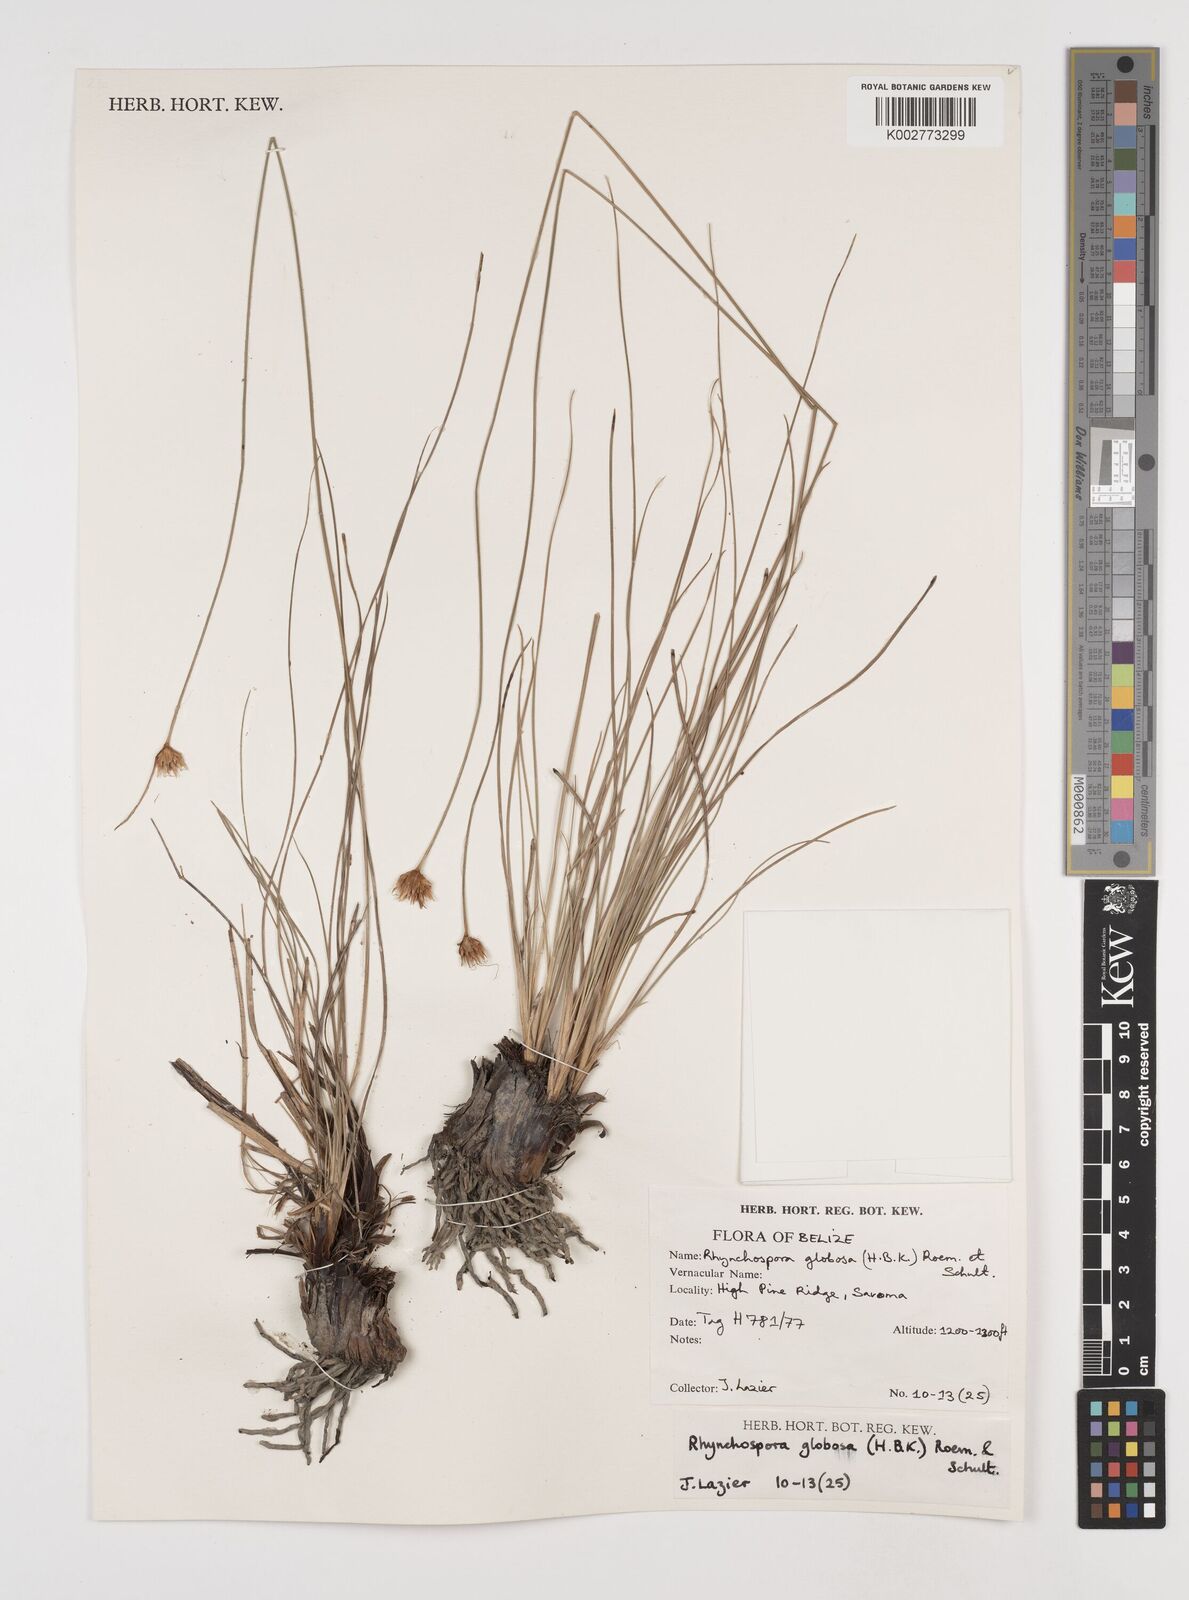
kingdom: Plantae
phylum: Tracheophyta
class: Liliopsida
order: Poales
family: Cyperaceae
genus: Rhynchospora
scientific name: Rhynchospora globosa
